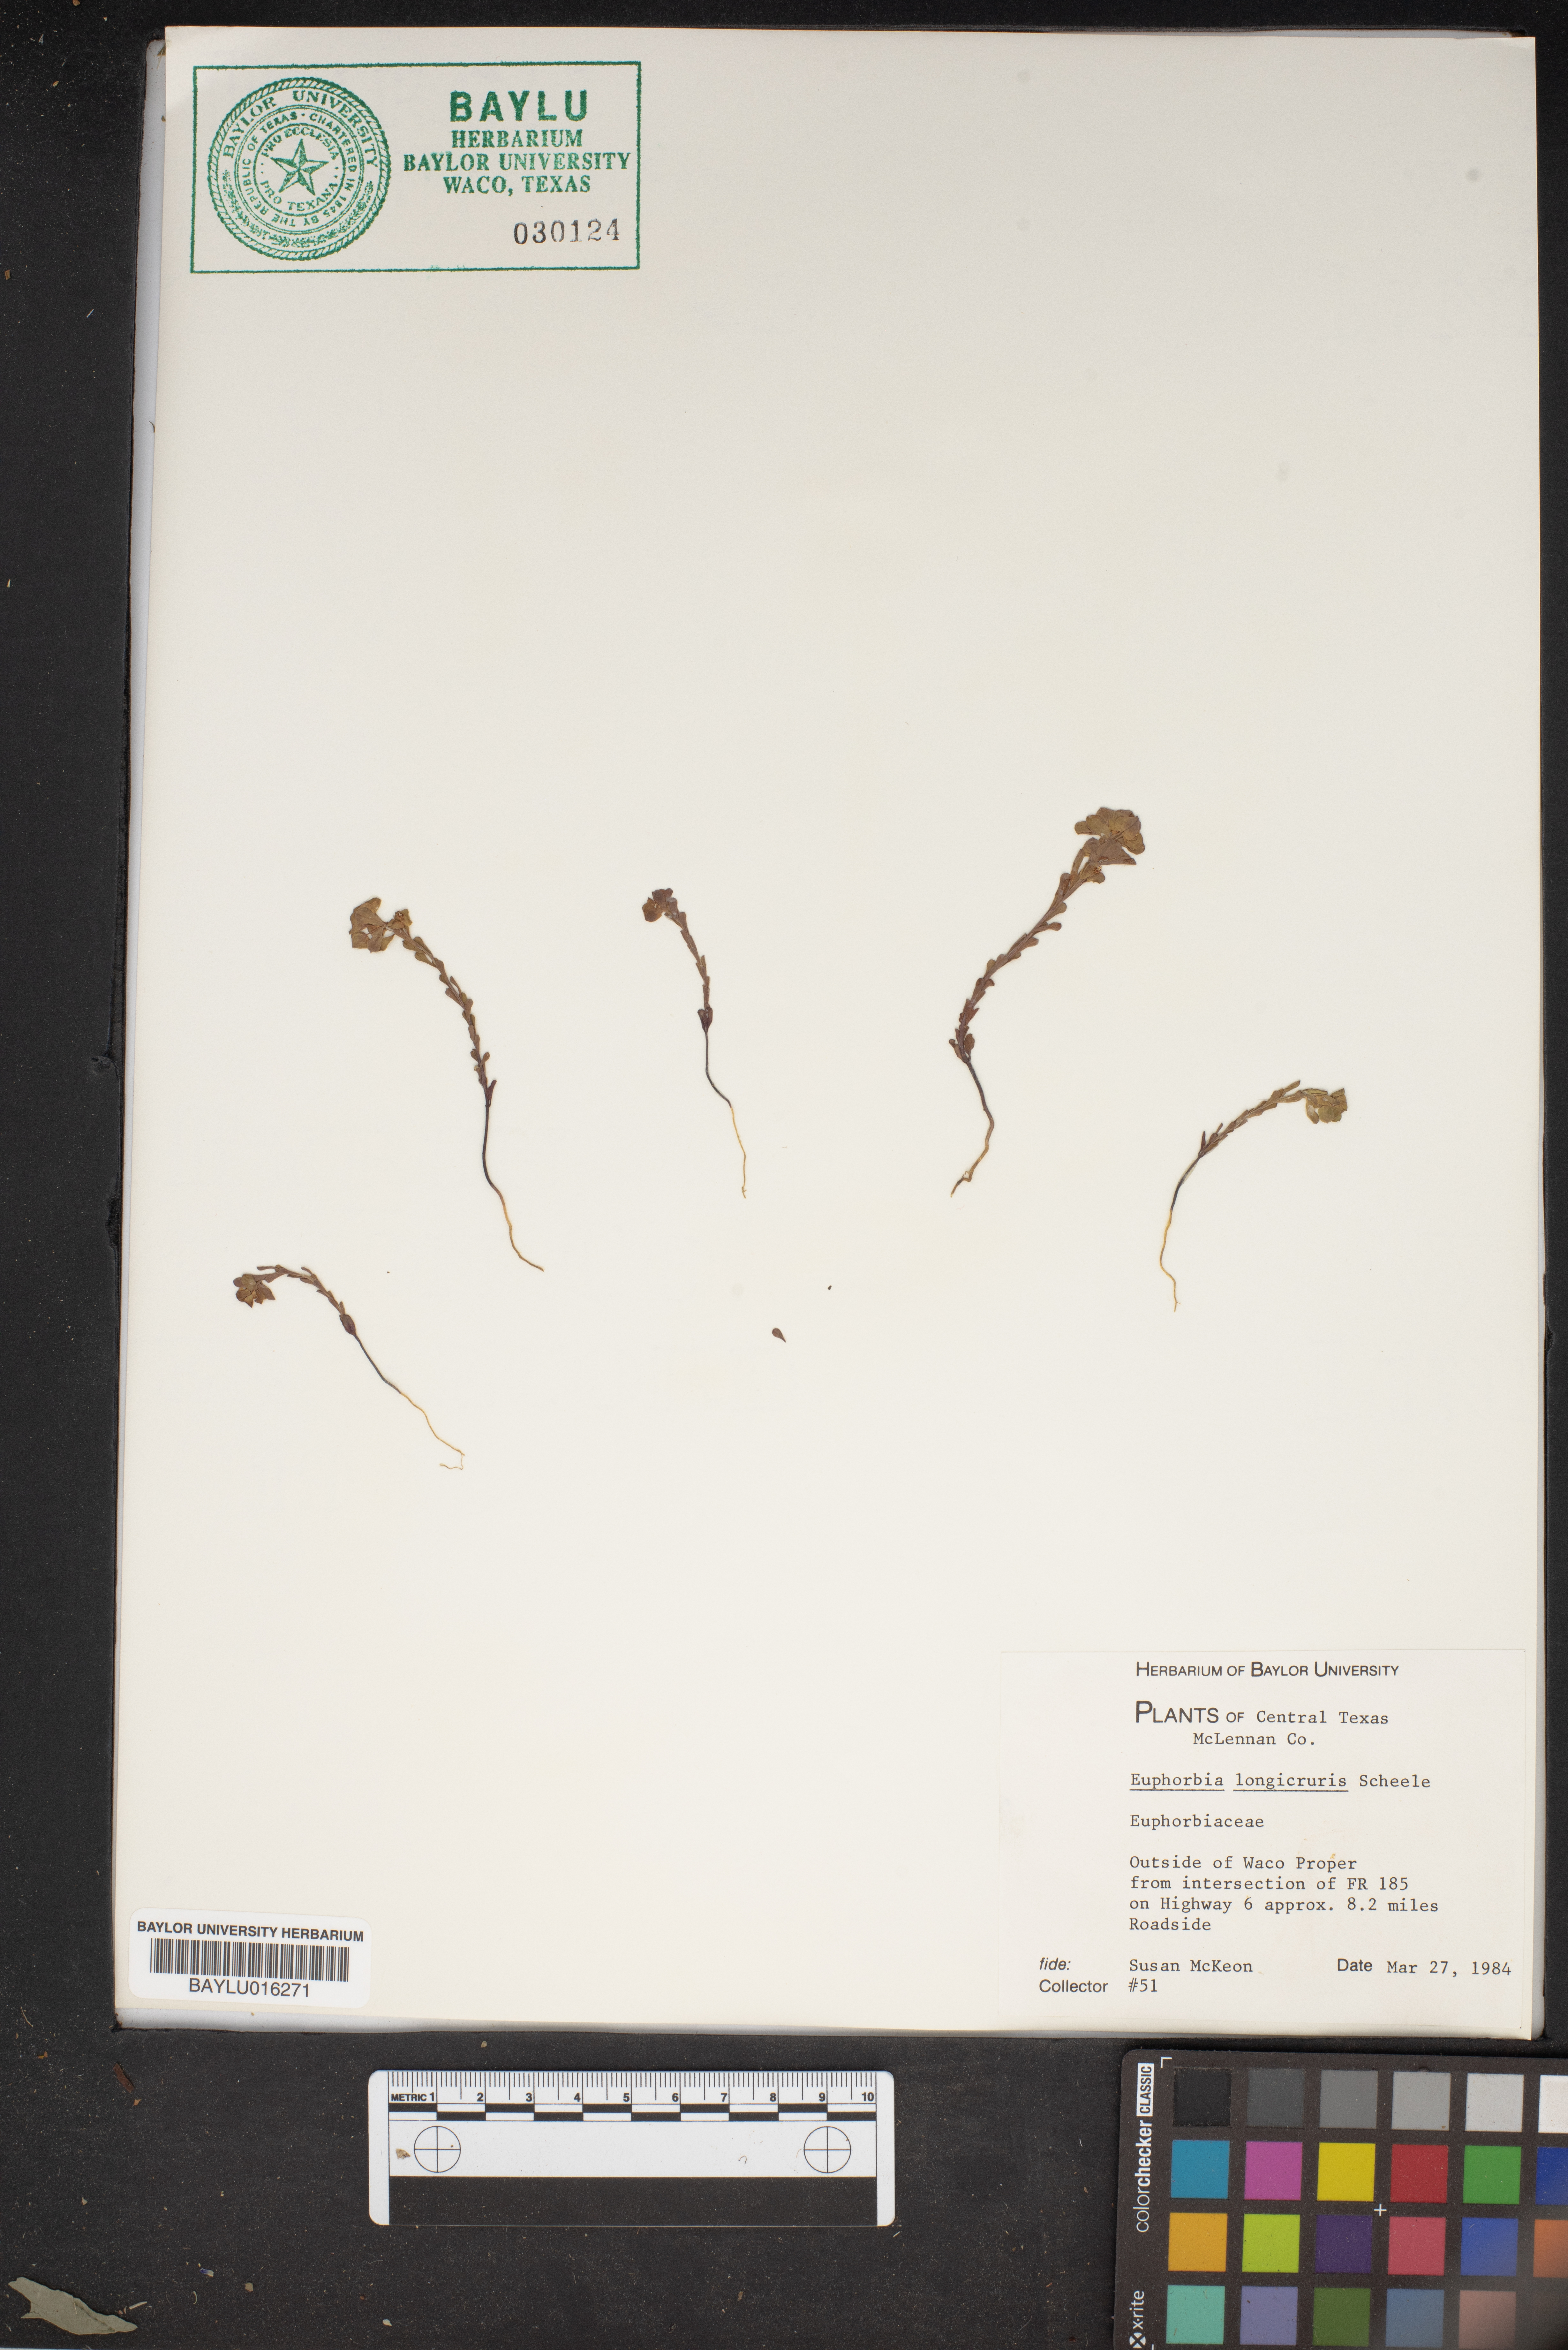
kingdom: Plantae
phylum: Tracheophyta
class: Magnoliopsida
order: Malpighiales
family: Euphorbiaceae
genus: Euphorbia
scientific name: Euphorbia longicruris
